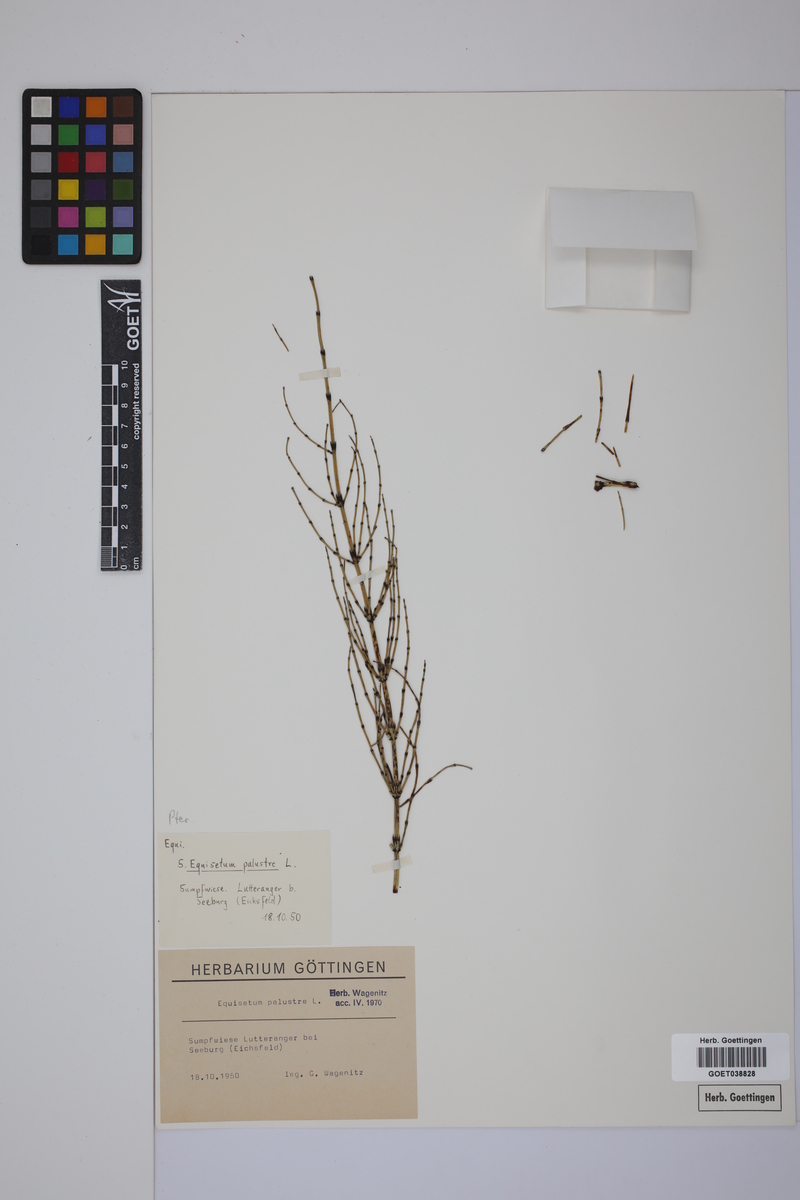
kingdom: Plantae
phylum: Tracheophyta
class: Polypodiopsida
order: Equisetales
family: Equisetaceae
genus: Equisetum
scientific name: Equisetum palustre
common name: Marsh horsetail
